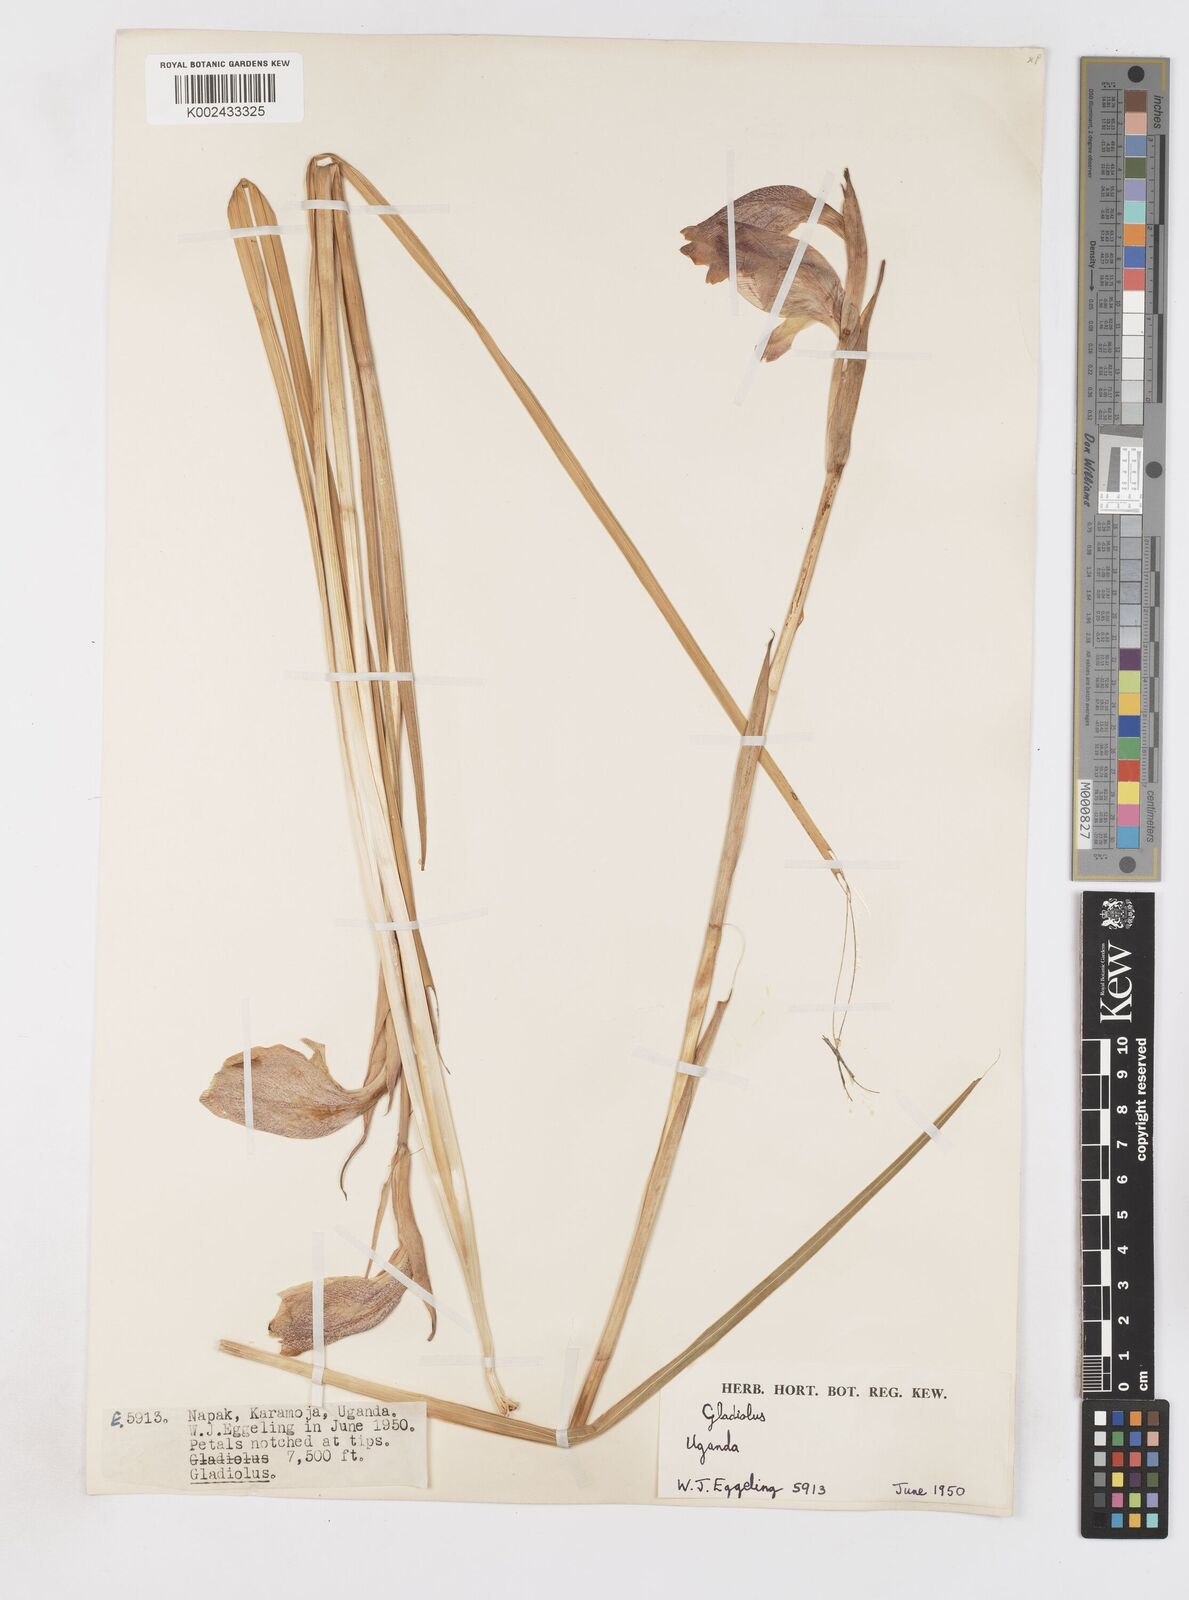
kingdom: Plantae
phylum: Tracheophyta
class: Liliopsida
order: Asparagales
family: Iridaceae
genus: Gladiolus
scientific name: Gladiolus dalenii
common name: Cornflag
